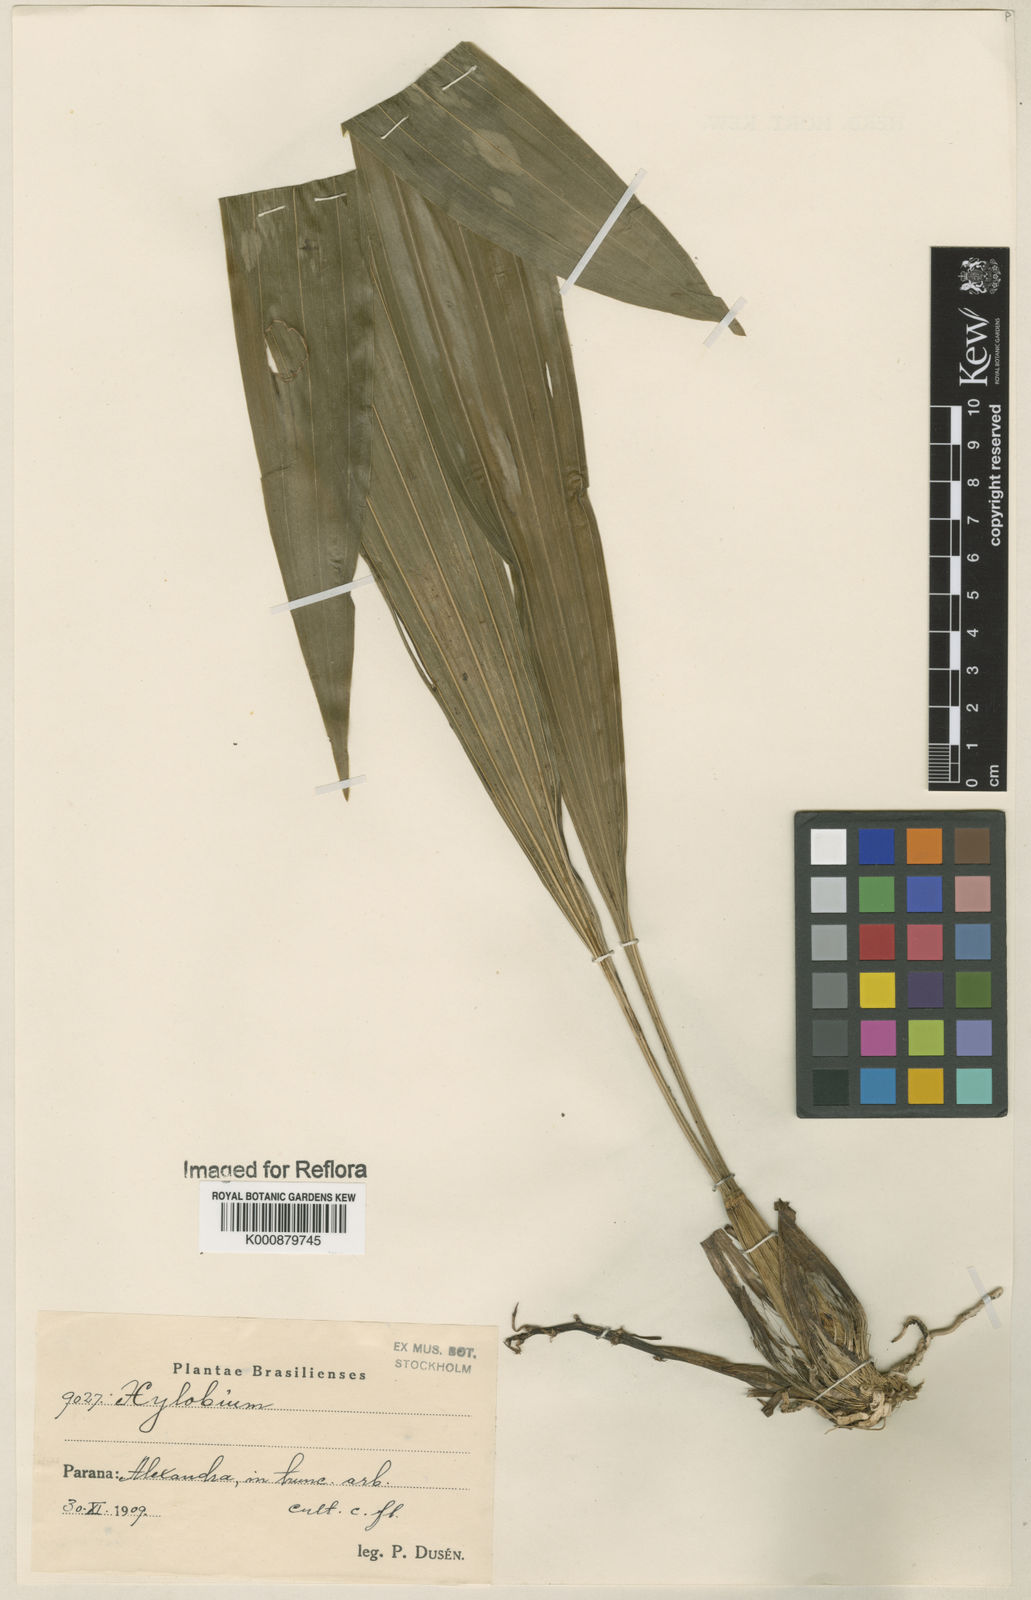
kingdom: Plantae
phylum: Tracheophyta
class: Liliopsida
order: Asparagales
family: Orchidaceae
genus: Xylobium
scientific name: Xylobium
